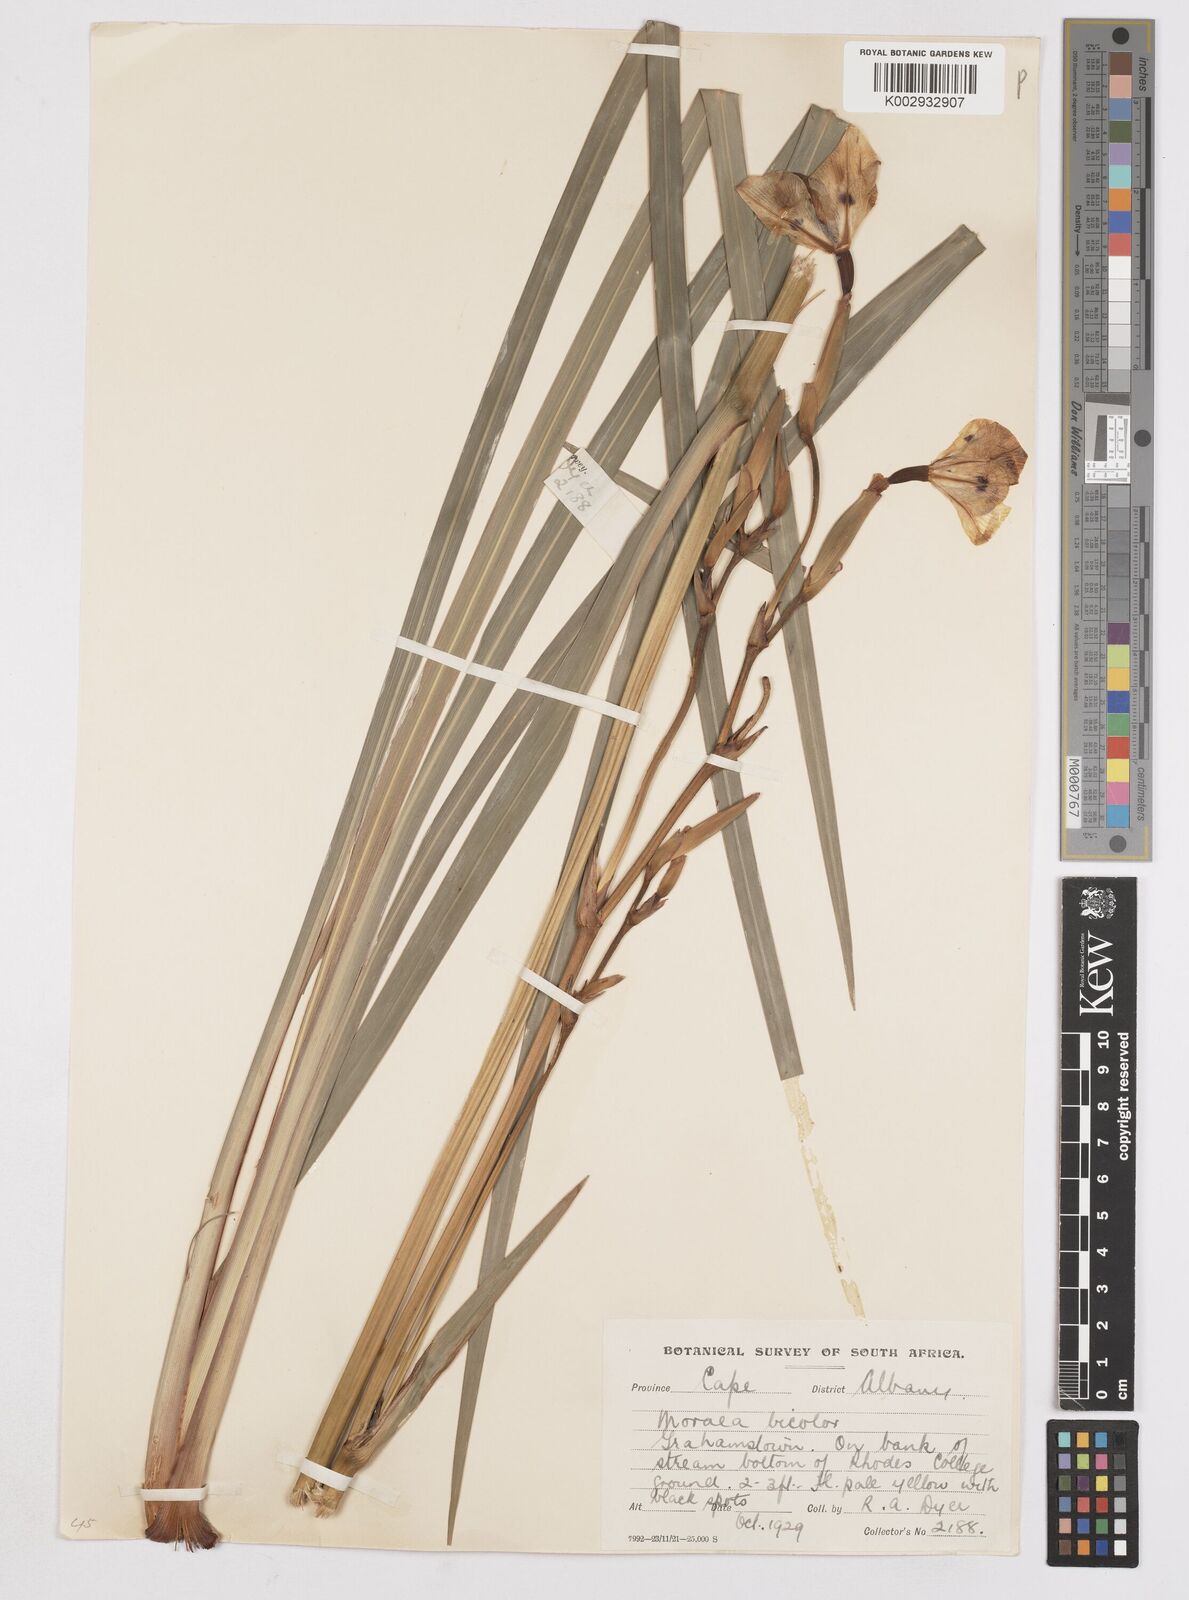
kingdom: Plantae
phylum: Tracheophyta
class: Liliopsida
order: Asparagales
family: Iridaceae
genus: Dietes
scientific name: Dietes bicolor
